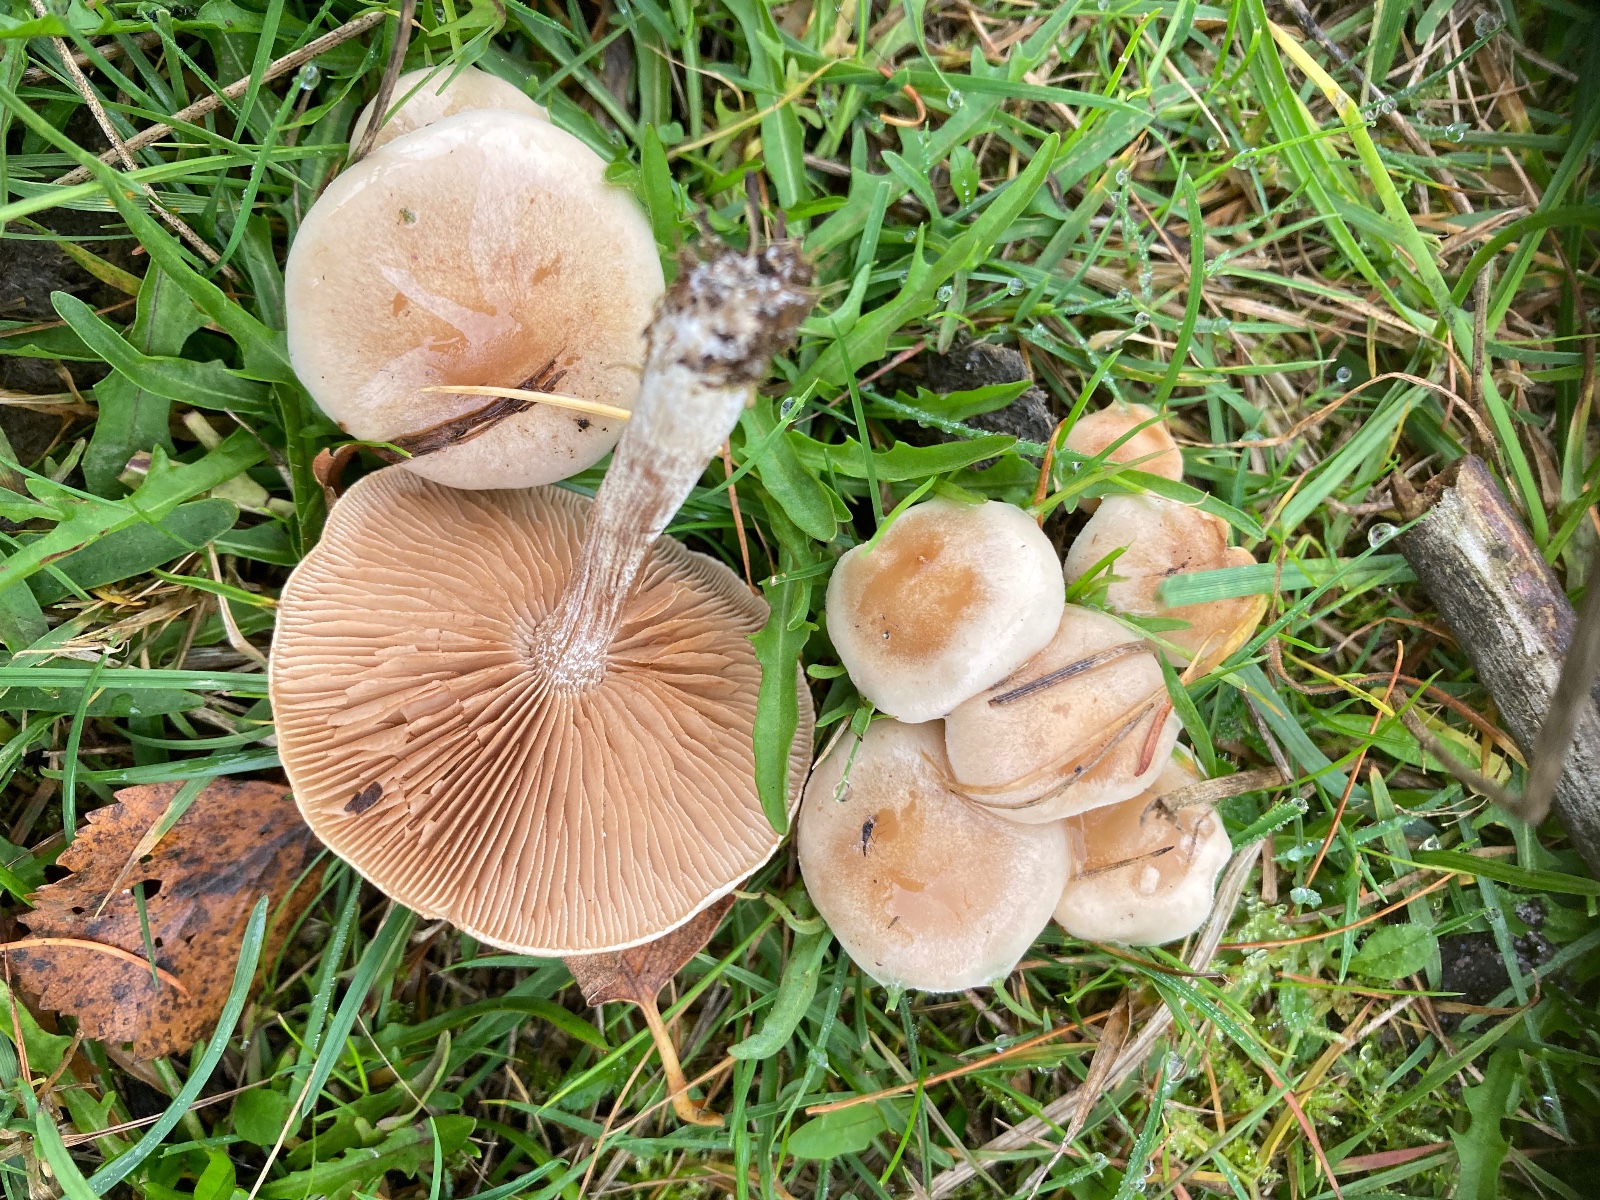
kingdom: Fungi
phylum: Basidiomycota
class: Agaricomycetes
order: Agaricales
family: Hymenogastraceae
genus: Hebeloma
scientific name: Hebeloma
